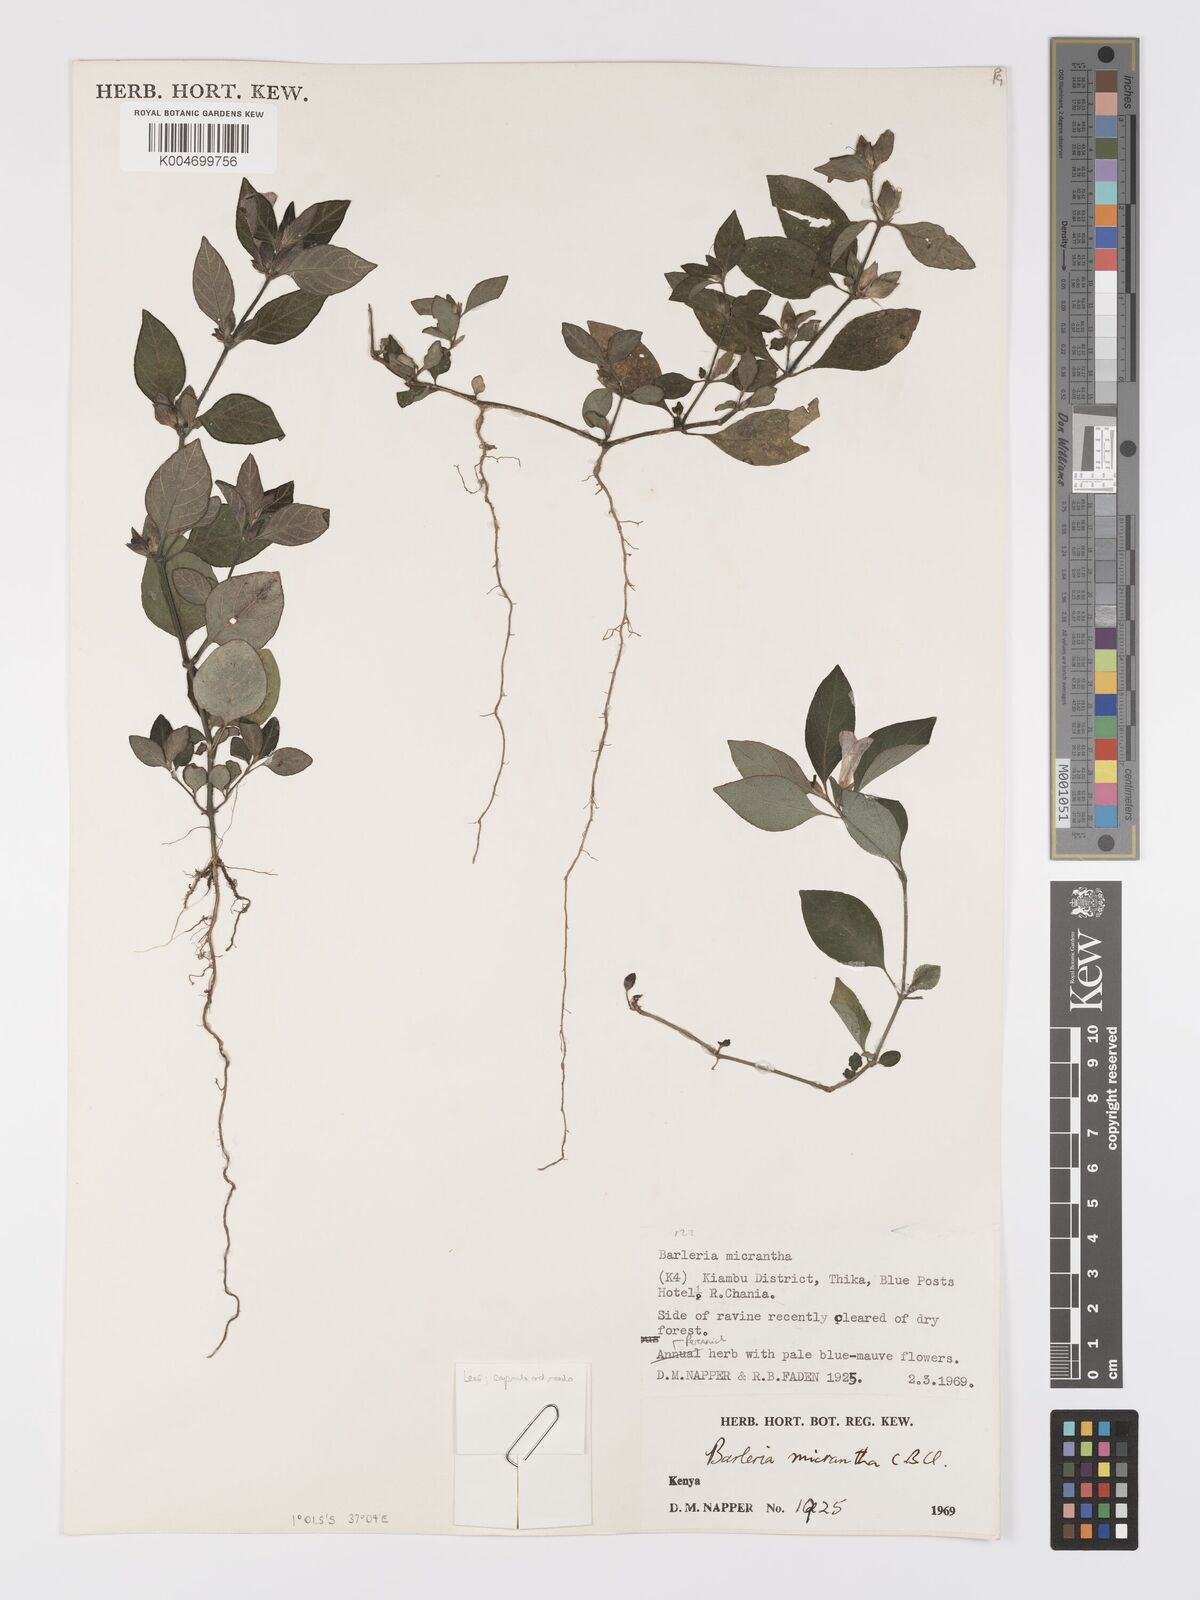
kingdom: Plantae
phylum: Tracheophyta
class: Magnoliopsida
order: Lamiales
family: Acanthaceae
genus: Barleria
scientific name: Barleria ventricosa
